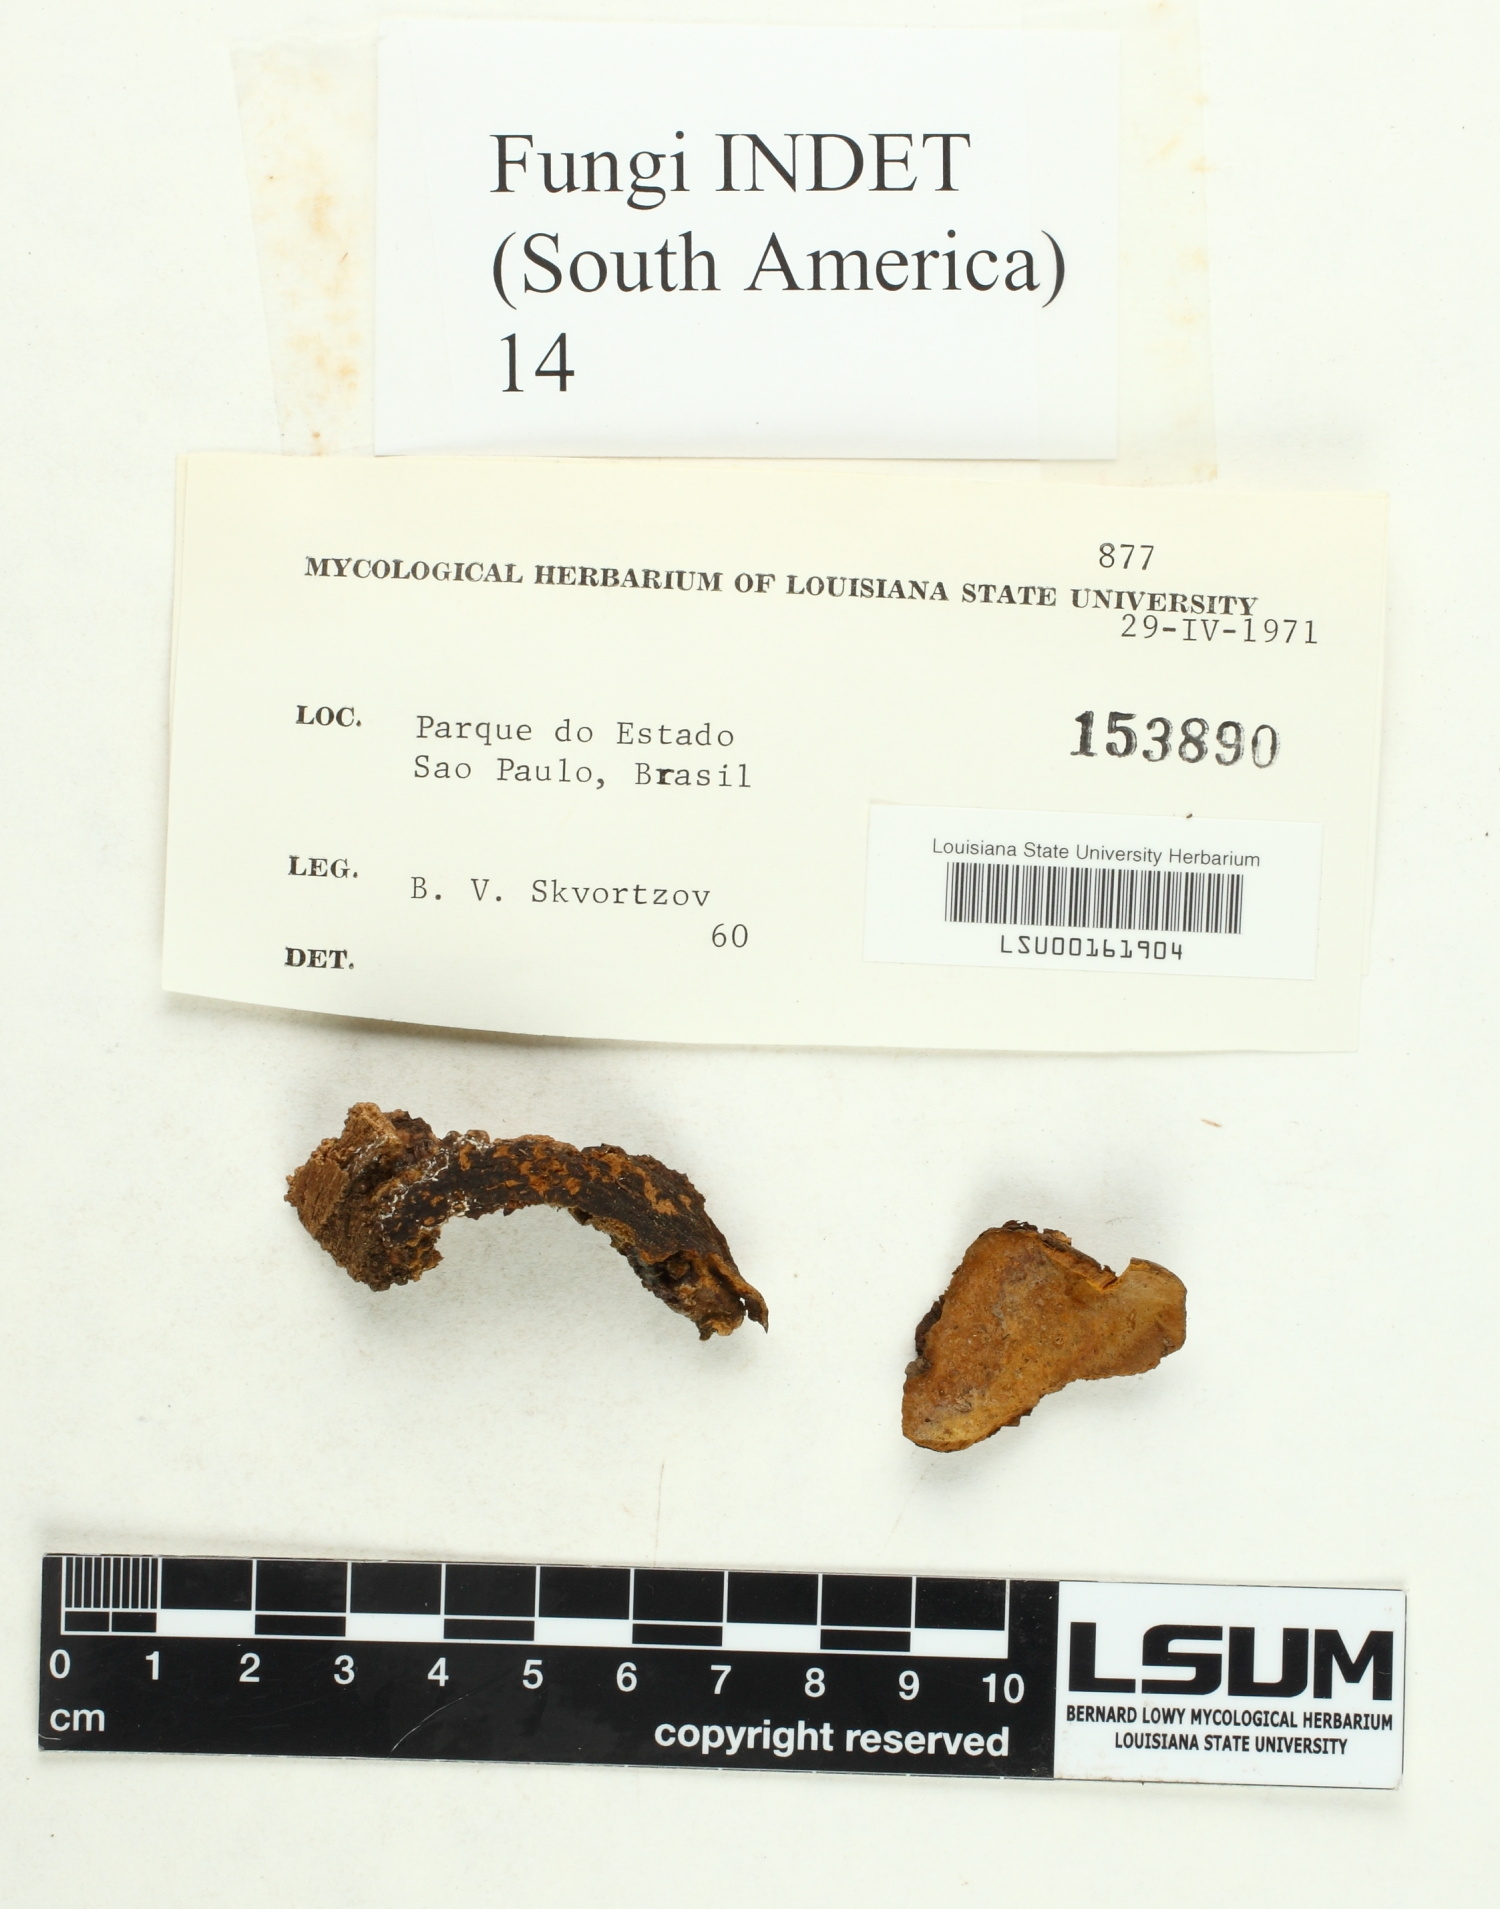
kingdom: Fungi
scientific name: Fungi
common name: Fungi
